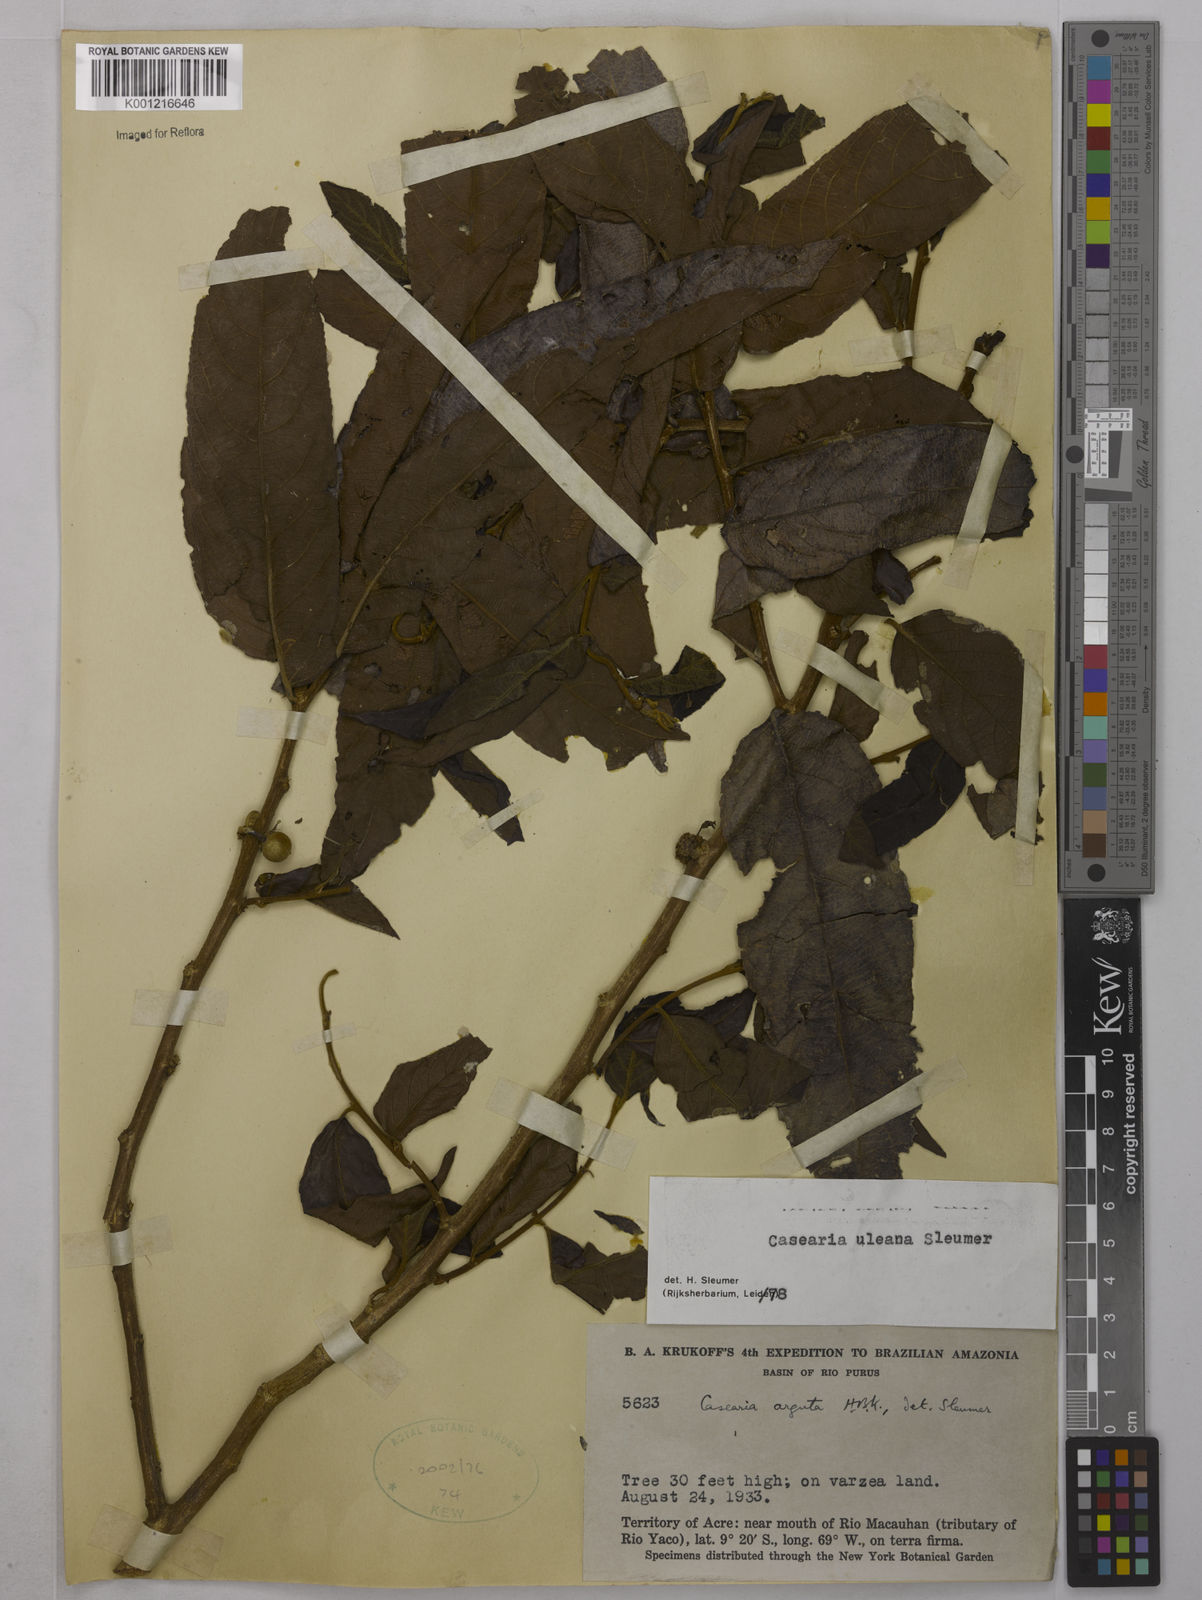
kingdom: Plantae
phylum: Tracheophyta
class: Magnoliopsida
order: Malpighiales
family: Salicaceae
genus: Casearia
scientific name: Casearia uleana
